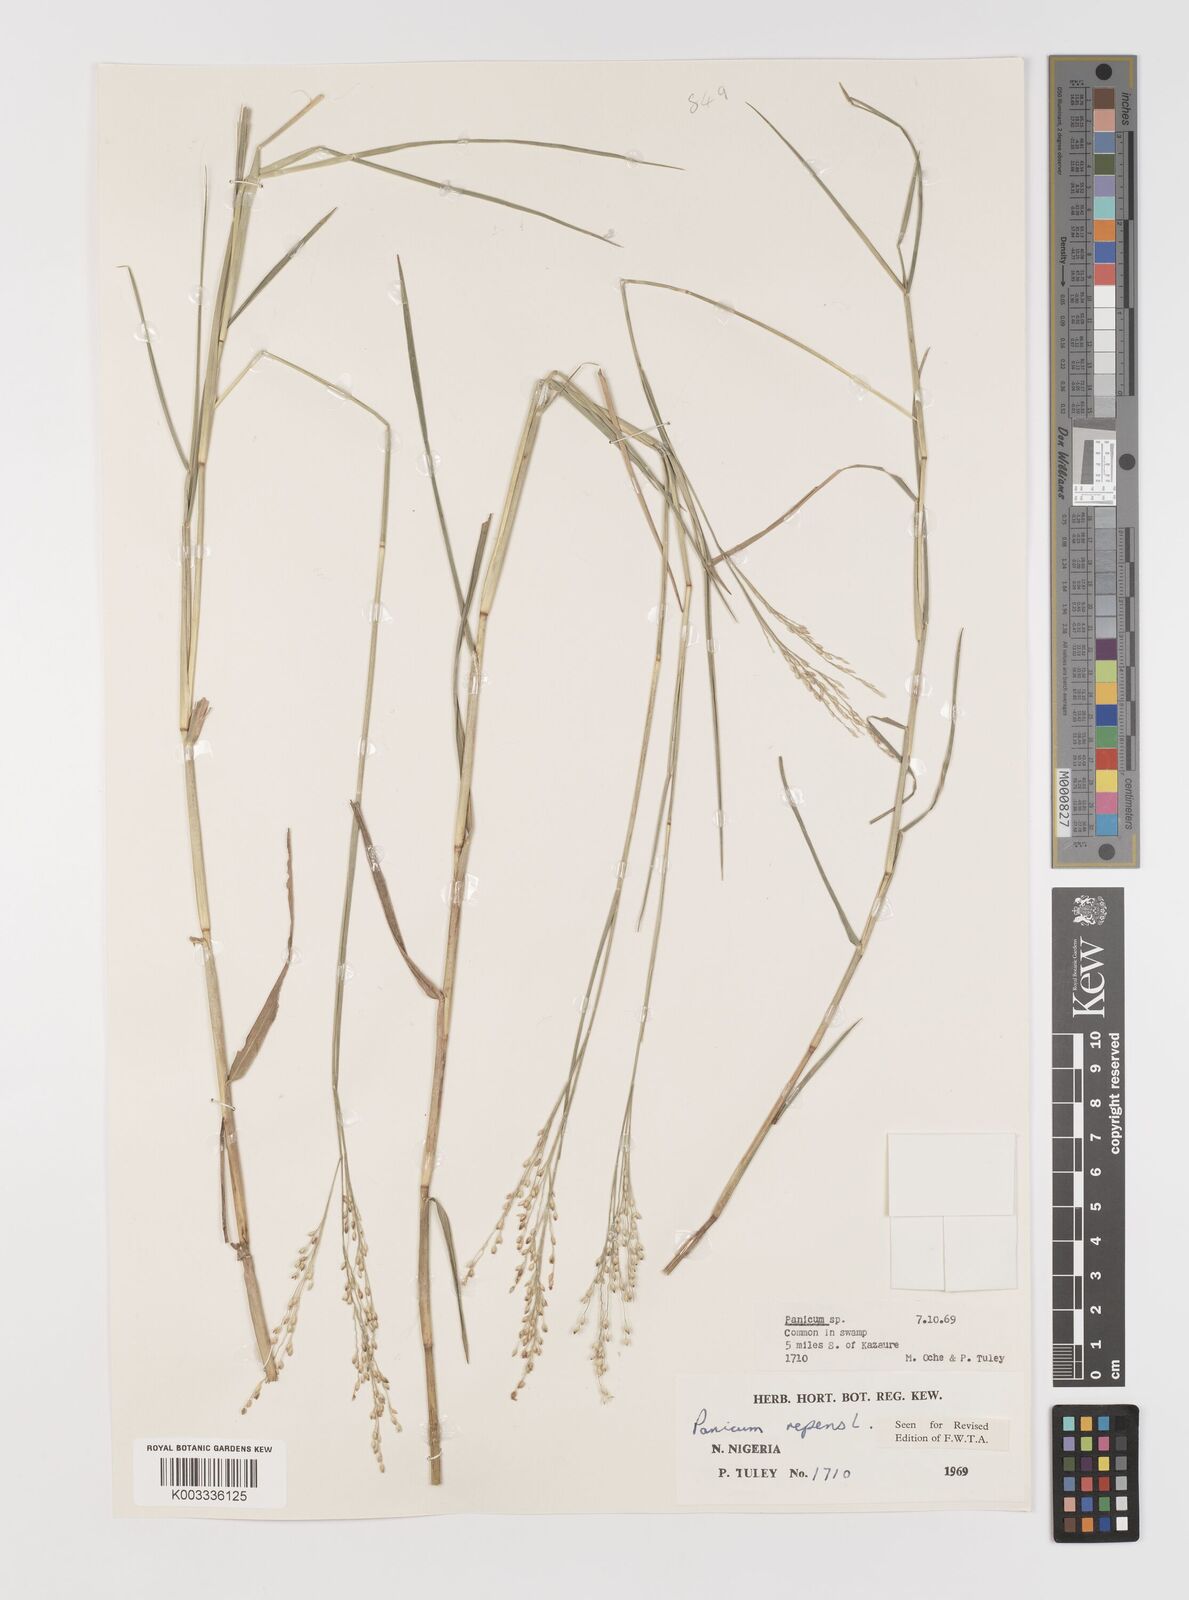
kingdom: Plantae
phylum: Tracheophyta
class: Liliopsida
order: Poales
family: Poaceae
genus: Panicum
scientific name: Panicum repens
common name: Torpedo grass
